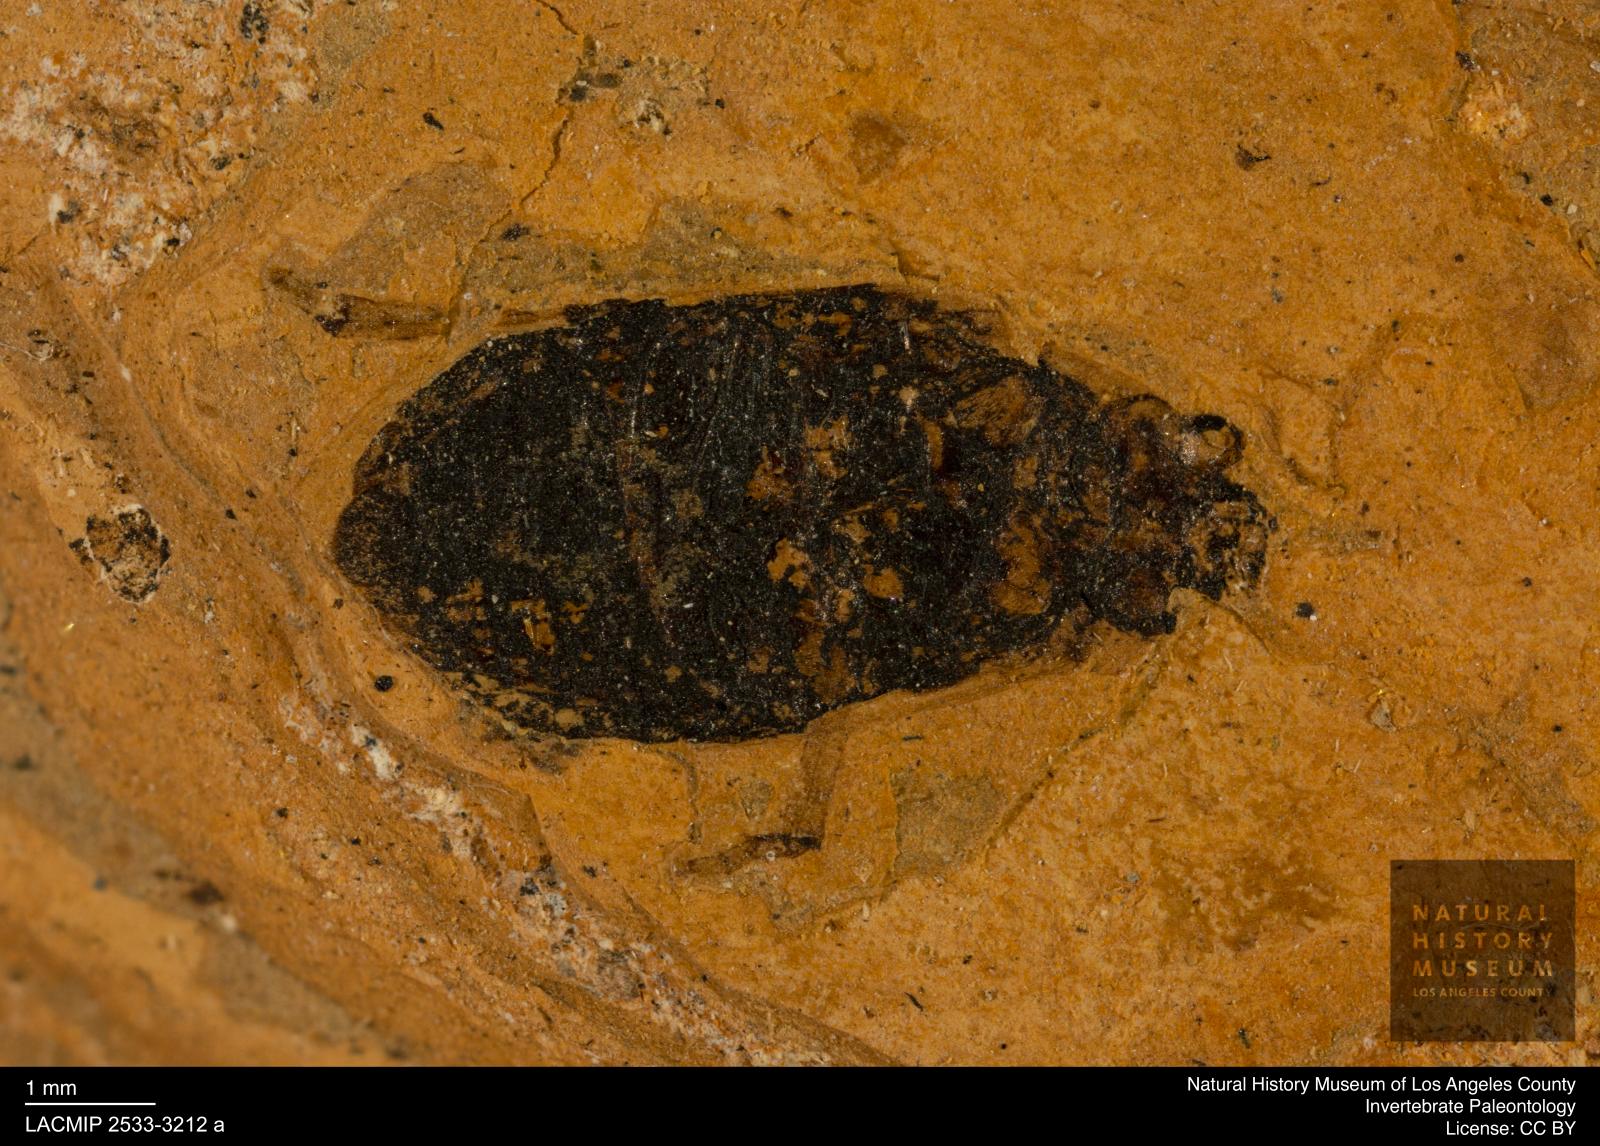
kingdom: Animalia
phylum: Arthropoda
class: Insecta
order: Coleoptera
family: Hydrophilidae
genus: Berosus
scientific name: Berosus morticinus
